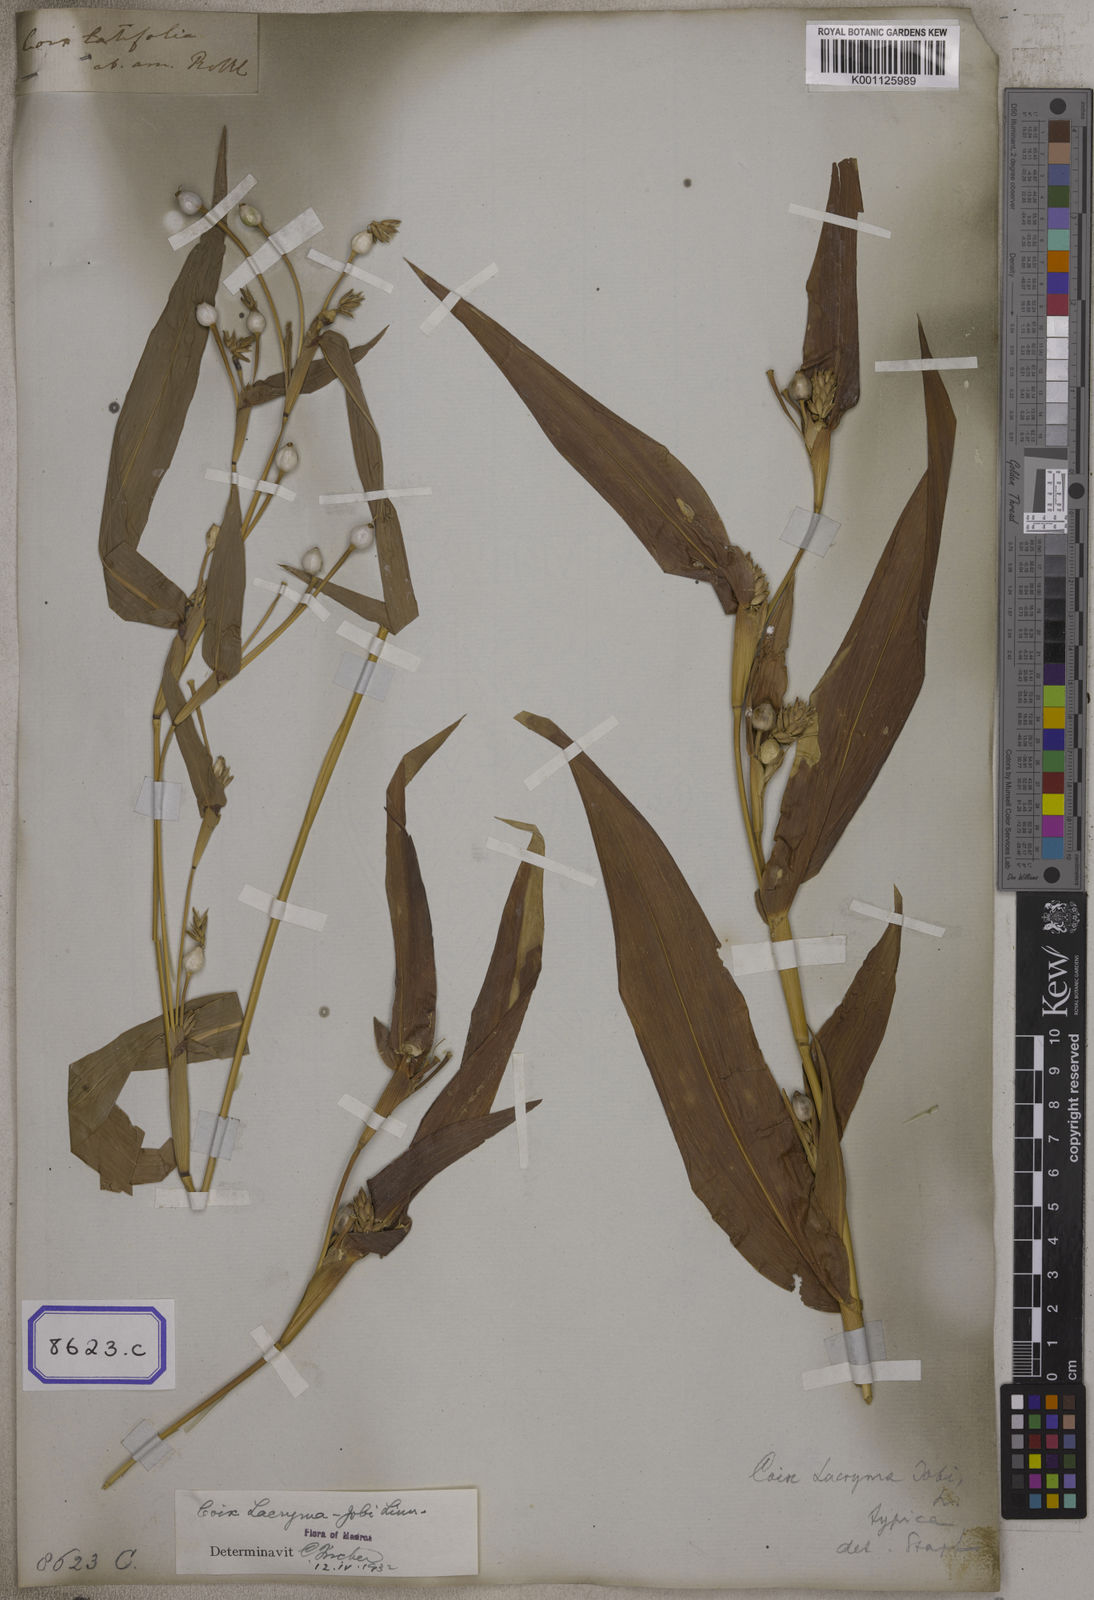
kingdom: Plantae
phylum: Tracheophyta
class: Liliopsida
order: Poales
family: Poaceae
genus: Coix
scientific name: Coix lacryma-jobi
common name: Job's tears
